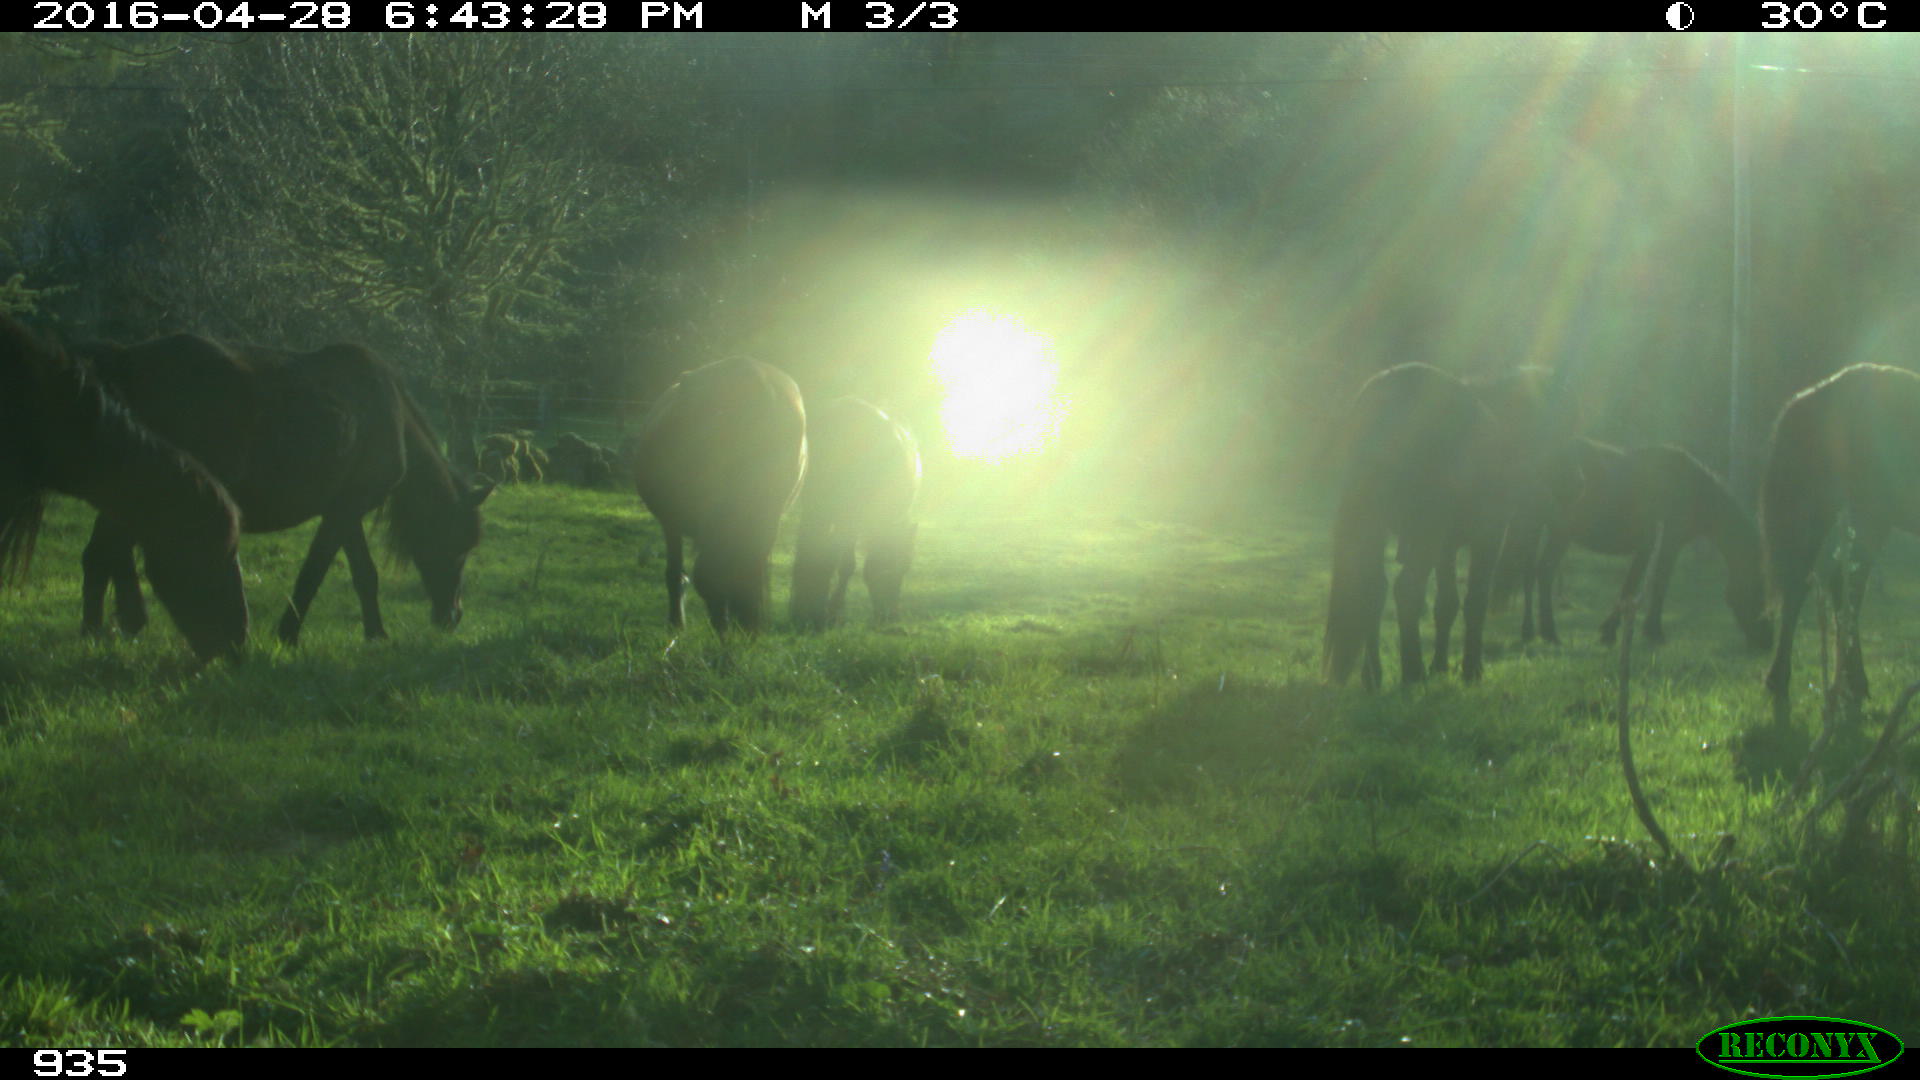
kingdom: Animalia
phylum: Chordata
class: Mammalia
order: Perissodactyla
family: Equidae
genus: Equus
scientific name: Equus caballus
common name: Horse
